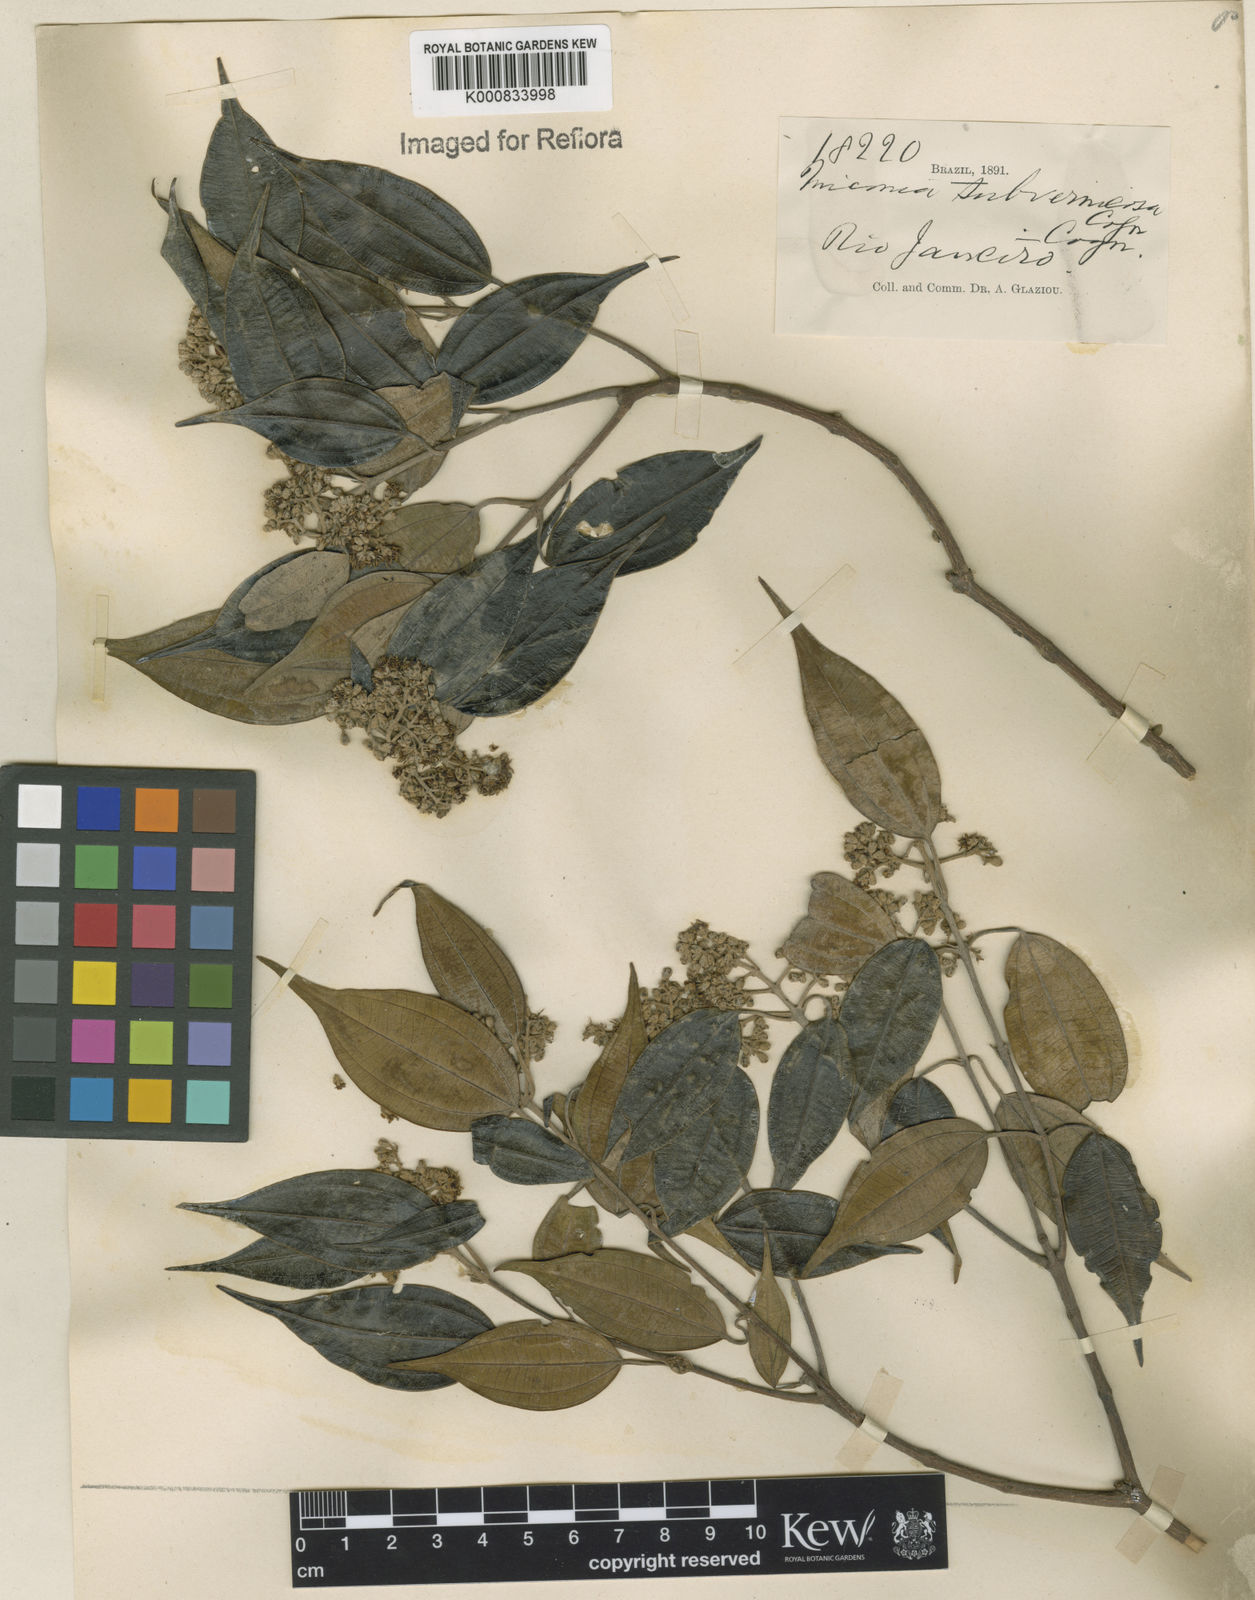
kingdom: Plantae
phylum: Tracheophyta
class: Magnoliopsida
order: Myrtales
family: Melastomataceae
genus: Miconia
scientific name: Miconia subvernicosa
